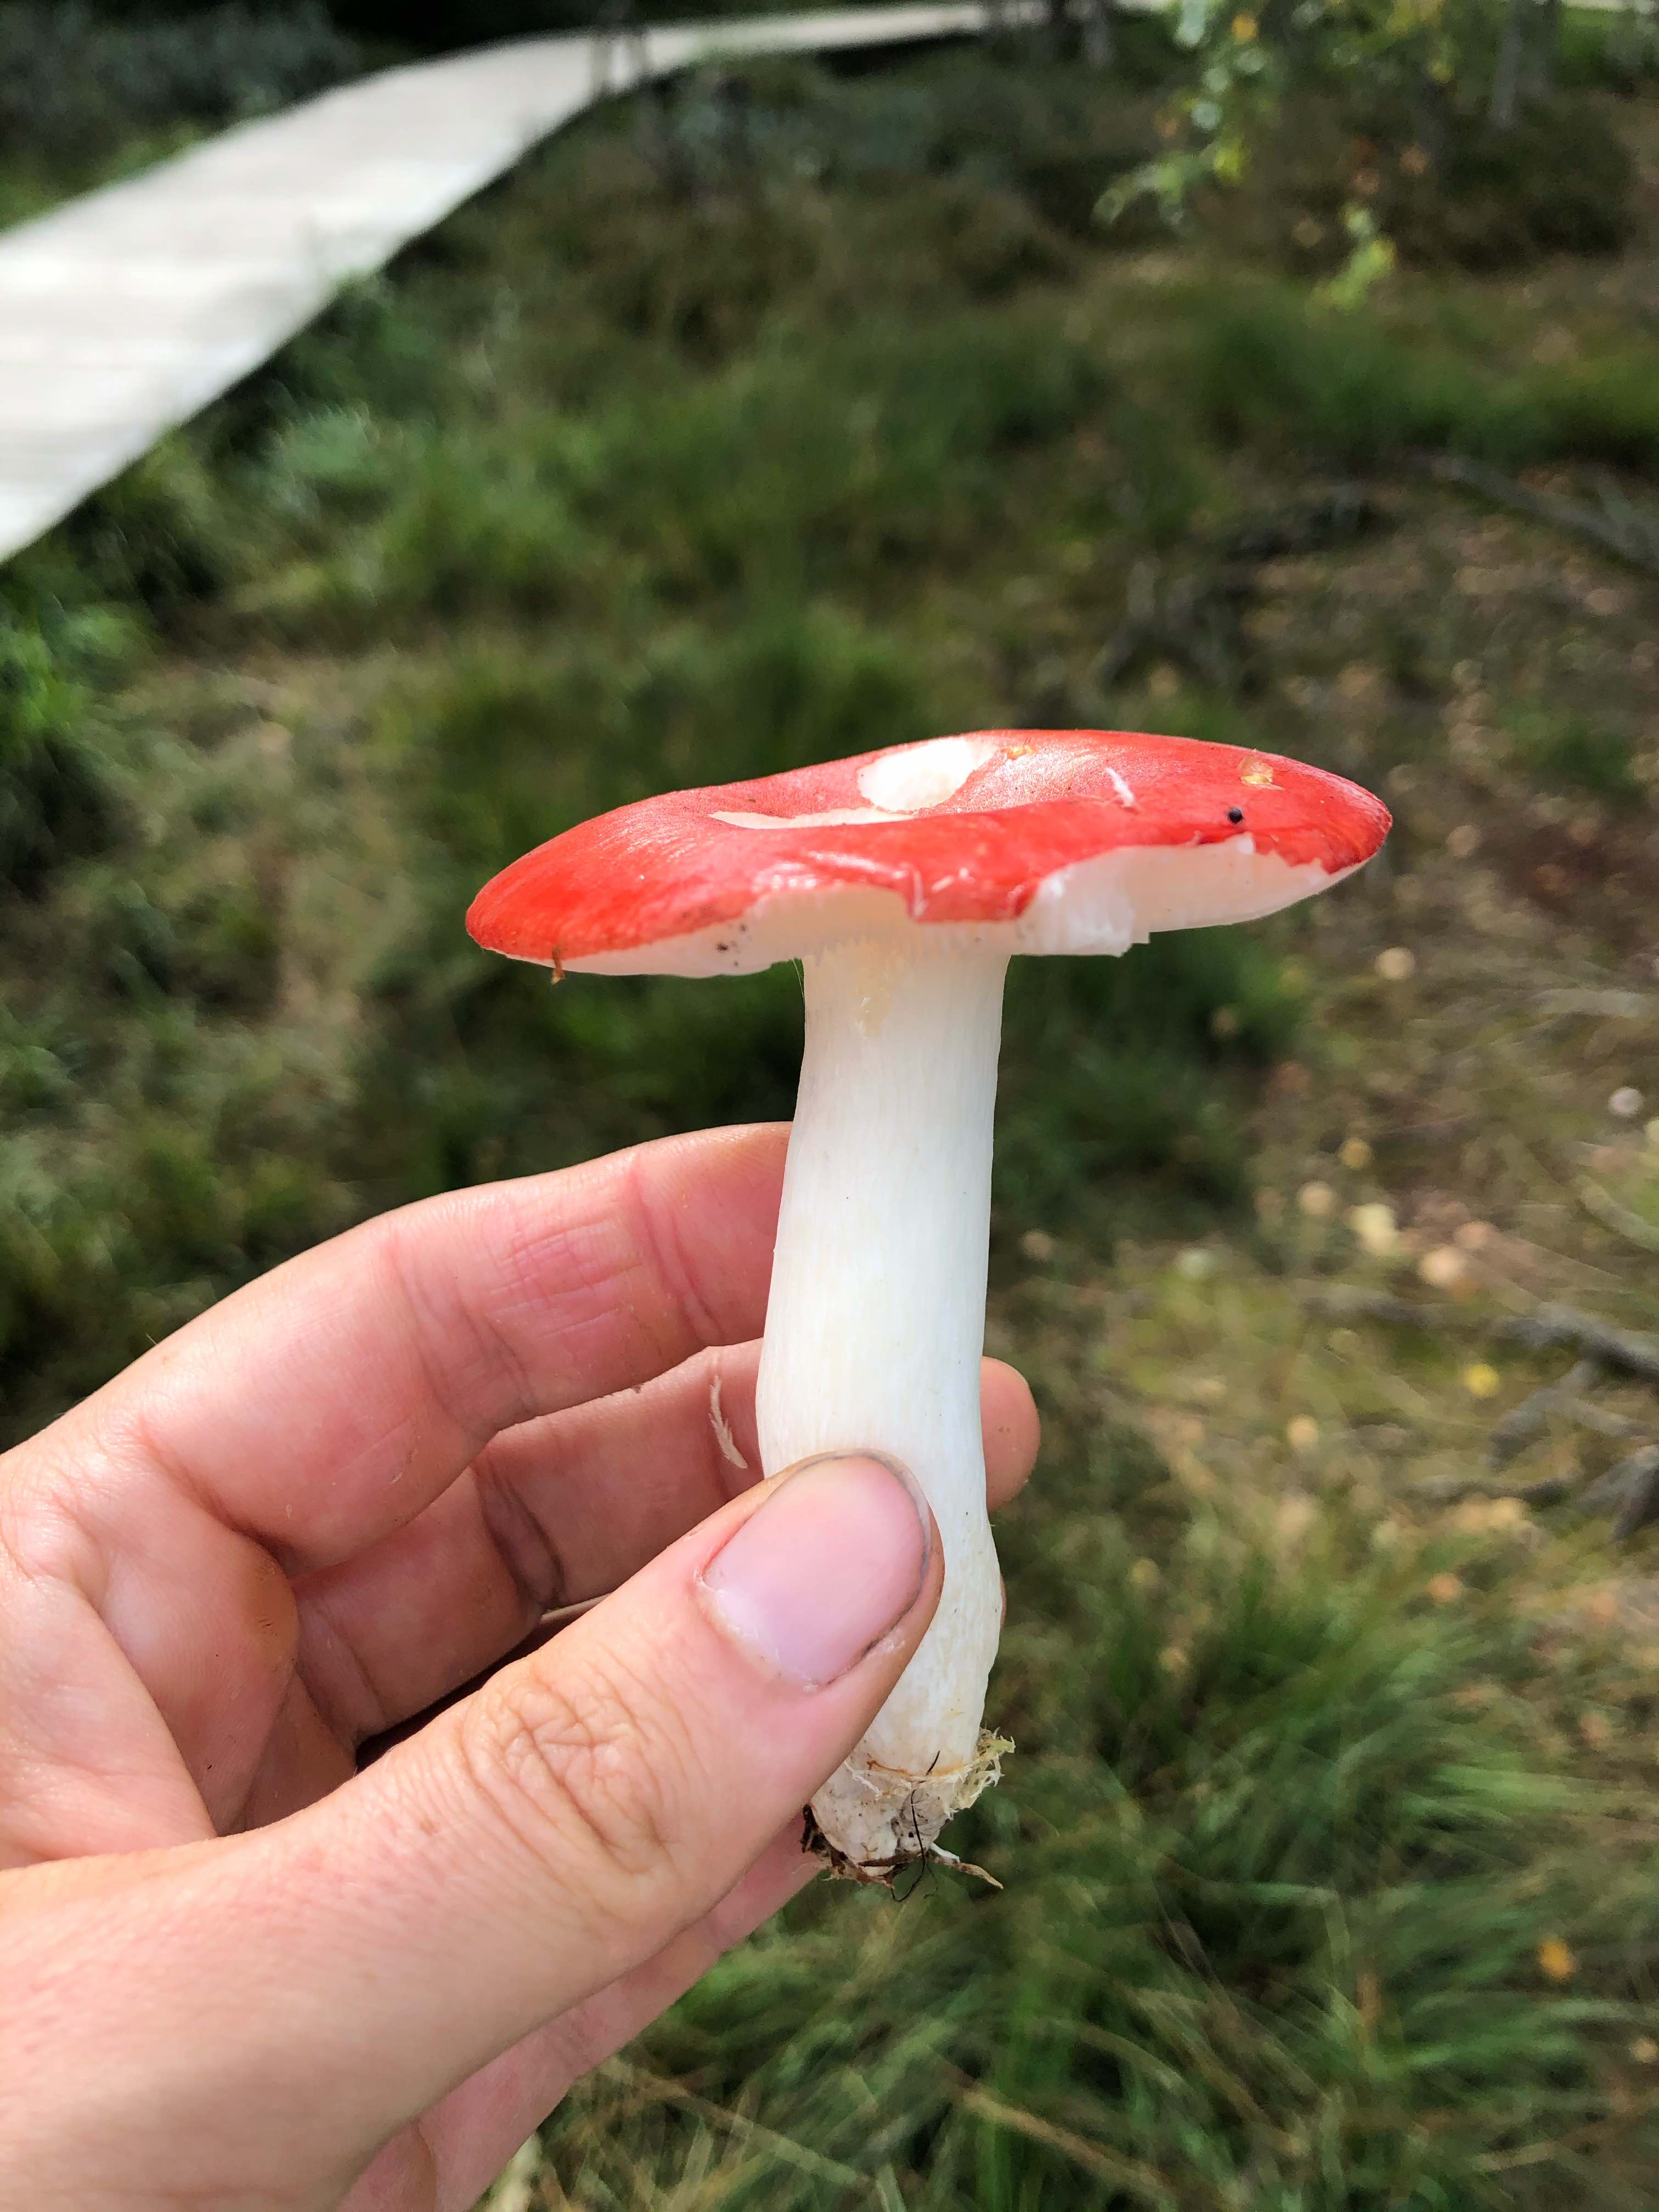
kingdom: Fungi
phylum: Basidiomycota
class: Agaricomycetes
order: Russulales
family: Russulaceae
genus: Russula
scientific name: Russula emetica
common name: stor gift-skørhat
